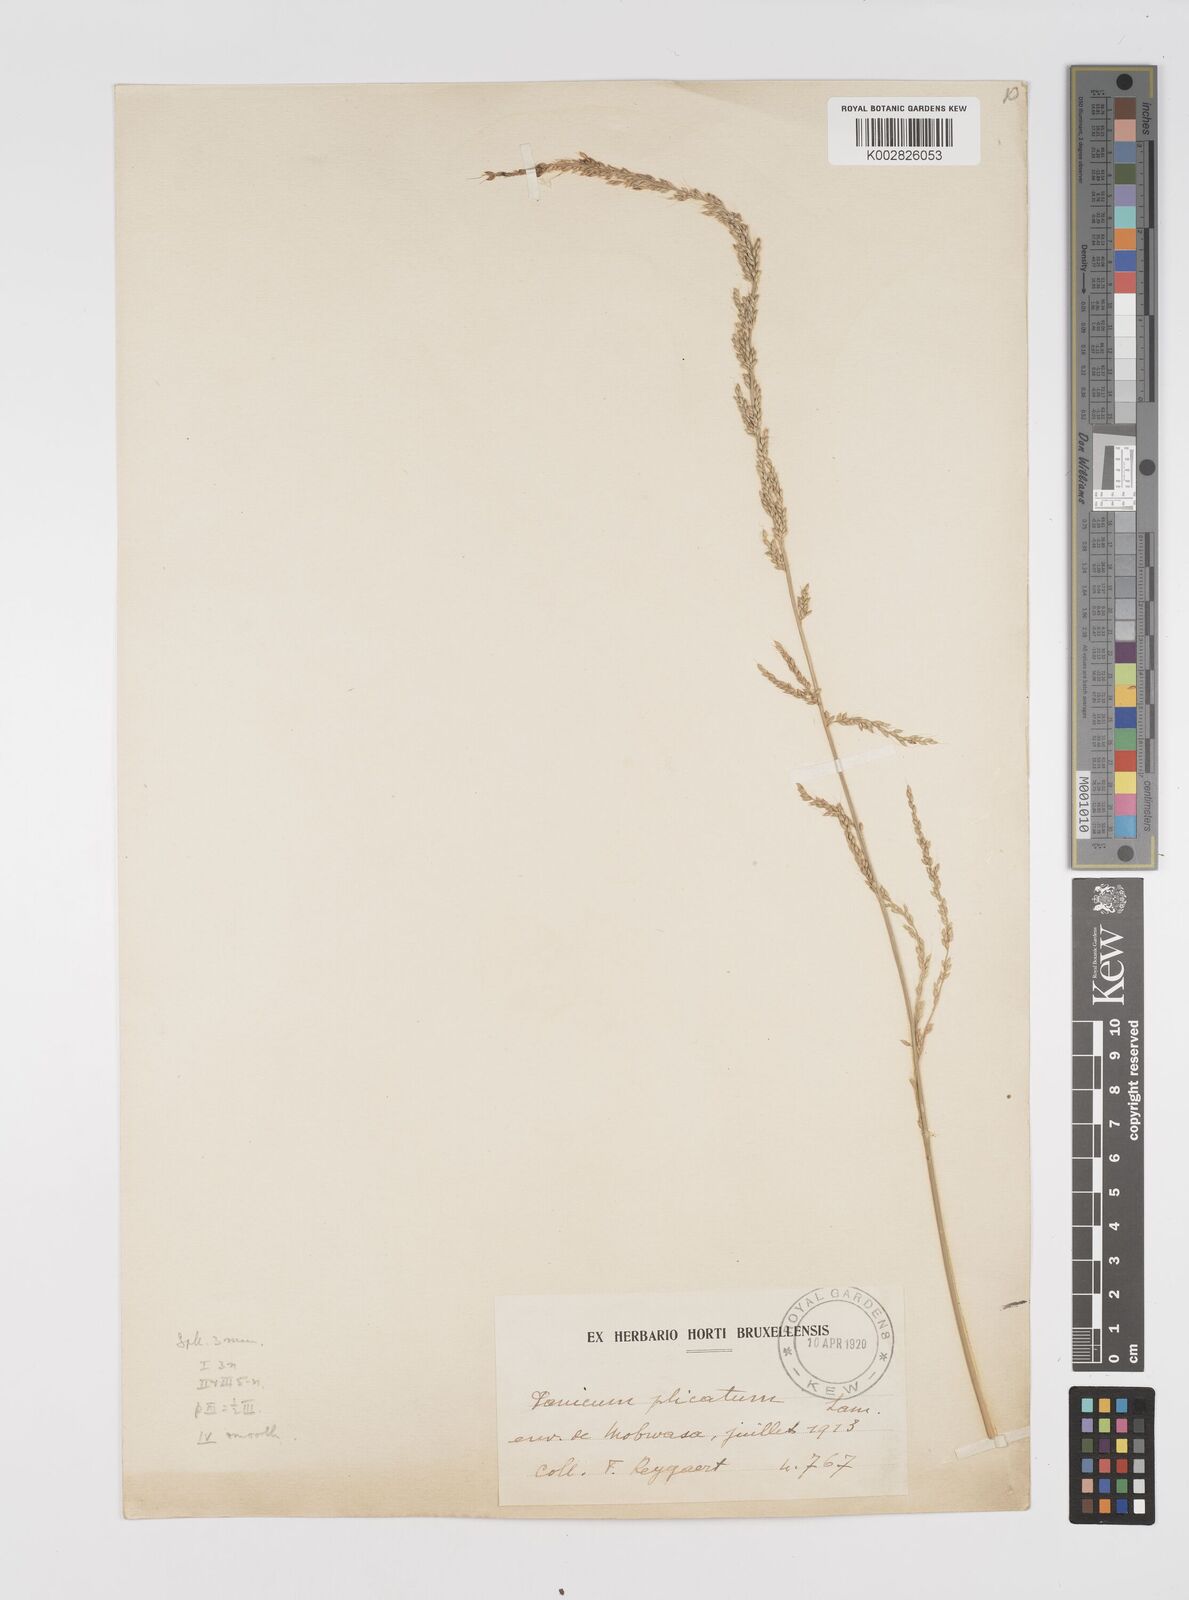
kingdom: Plantae
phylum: Tracheophyta
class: Liliopsida
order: Poales
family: Poaceae
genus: Setaria
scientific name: Setaria megaphylla
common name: Bigleaf bristlegrass
